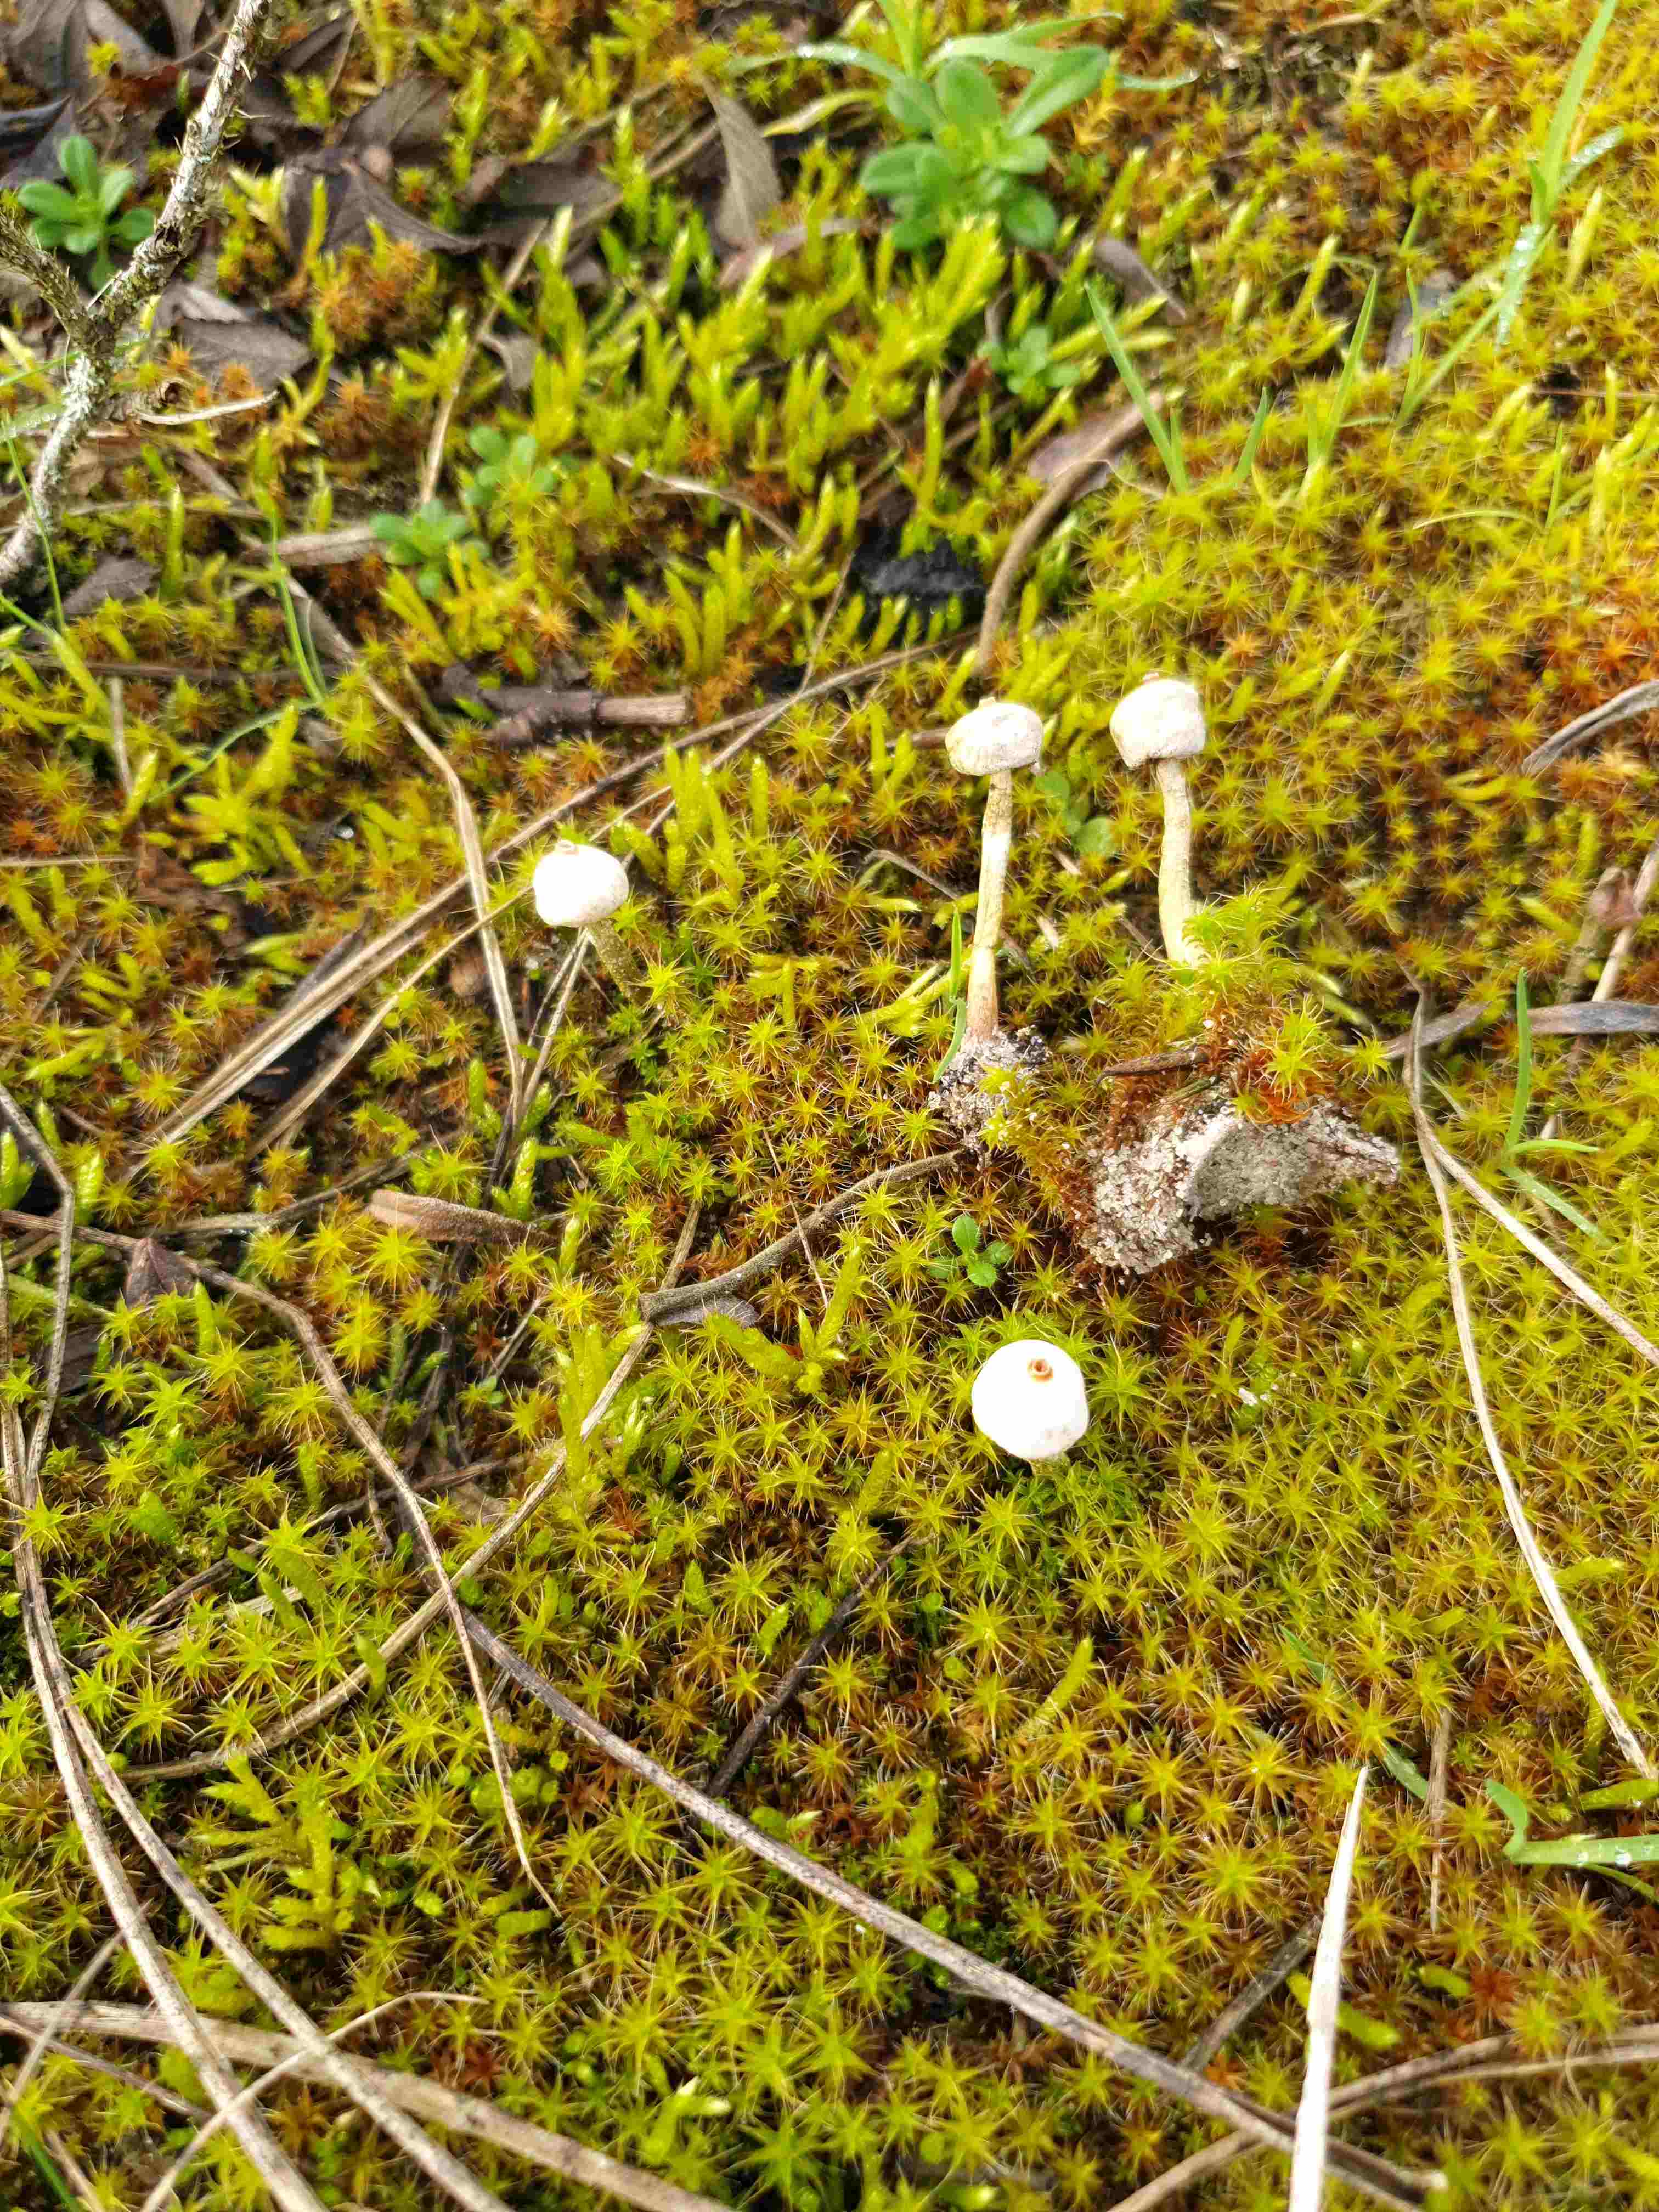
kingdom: Fungi
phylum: Basidiomycota
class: Agaricomycetes
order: Agaricales
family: Agaricaceae
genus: Tulostoma
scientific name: Tulostoma brumale
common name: vinter-stilkbovist
